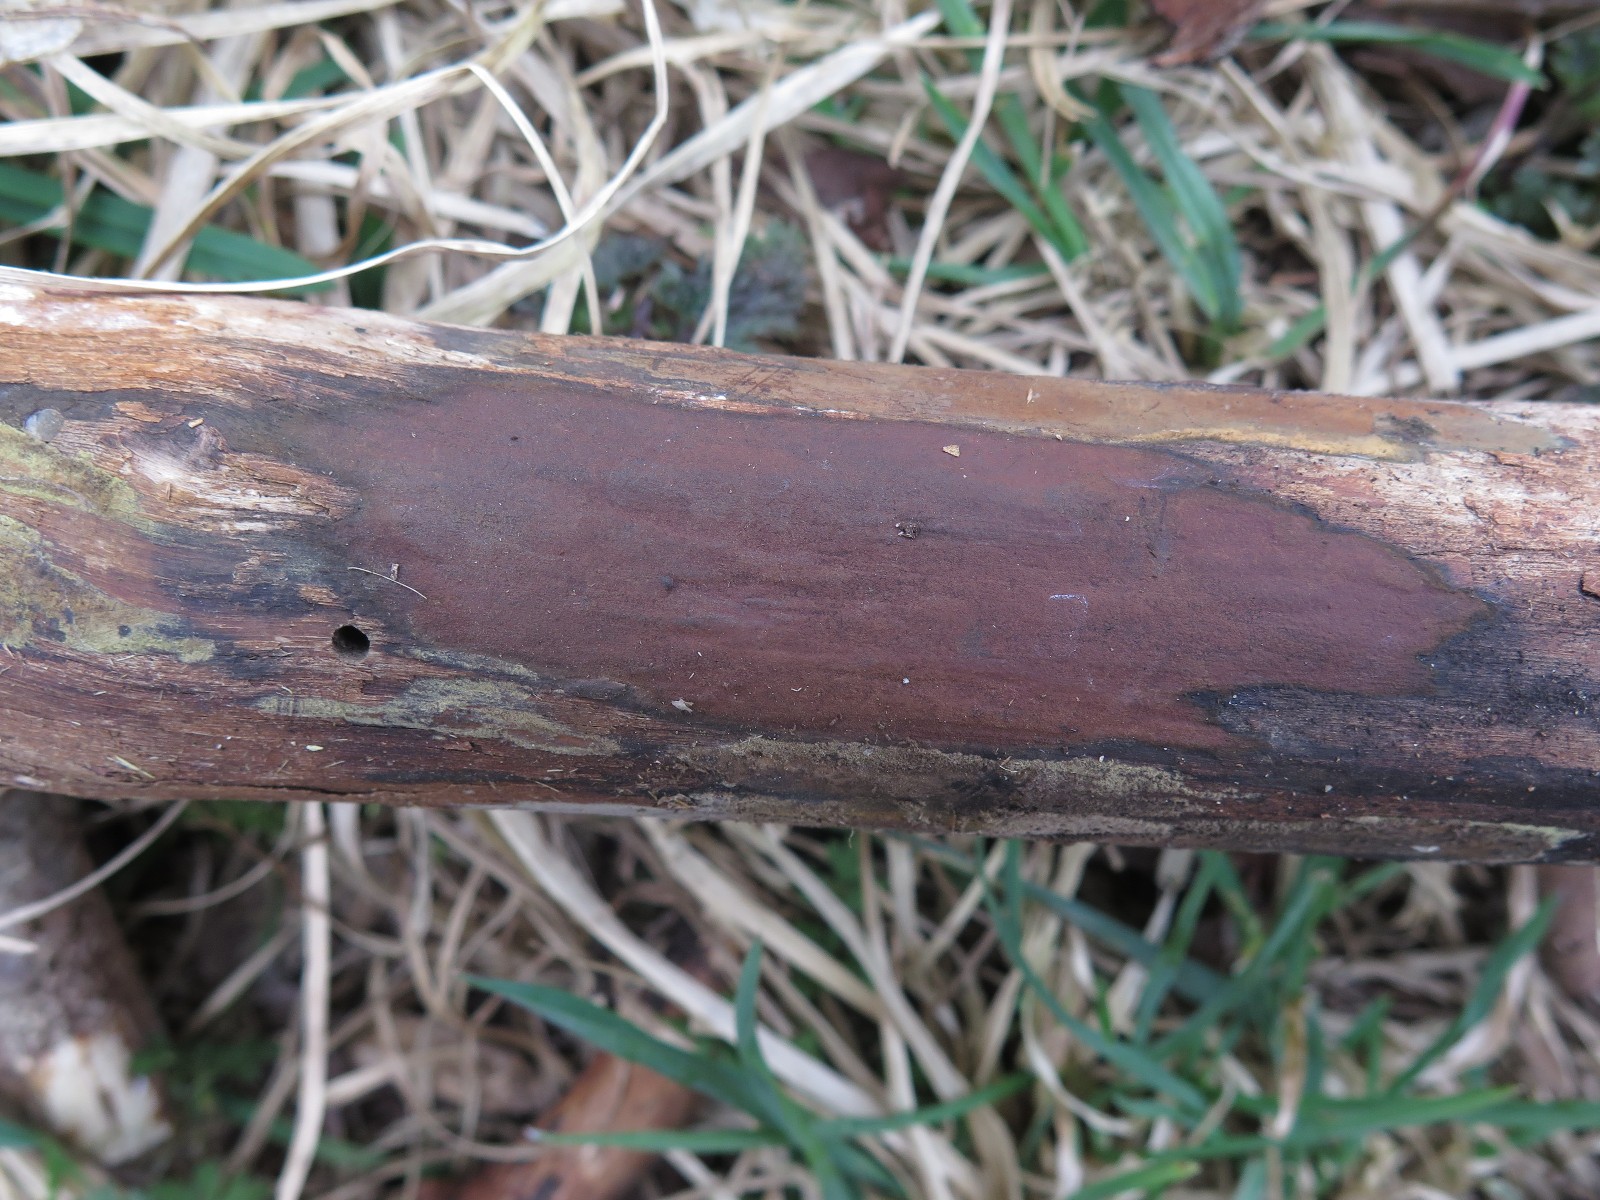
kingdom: Fungi
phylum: Ascomycota
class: Sordariomycetes
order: Xylariales
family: Hypoxylaceae
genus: Hypoxylon
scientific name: Hypoxylon macrocarpum
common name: skorpe-kulbær
